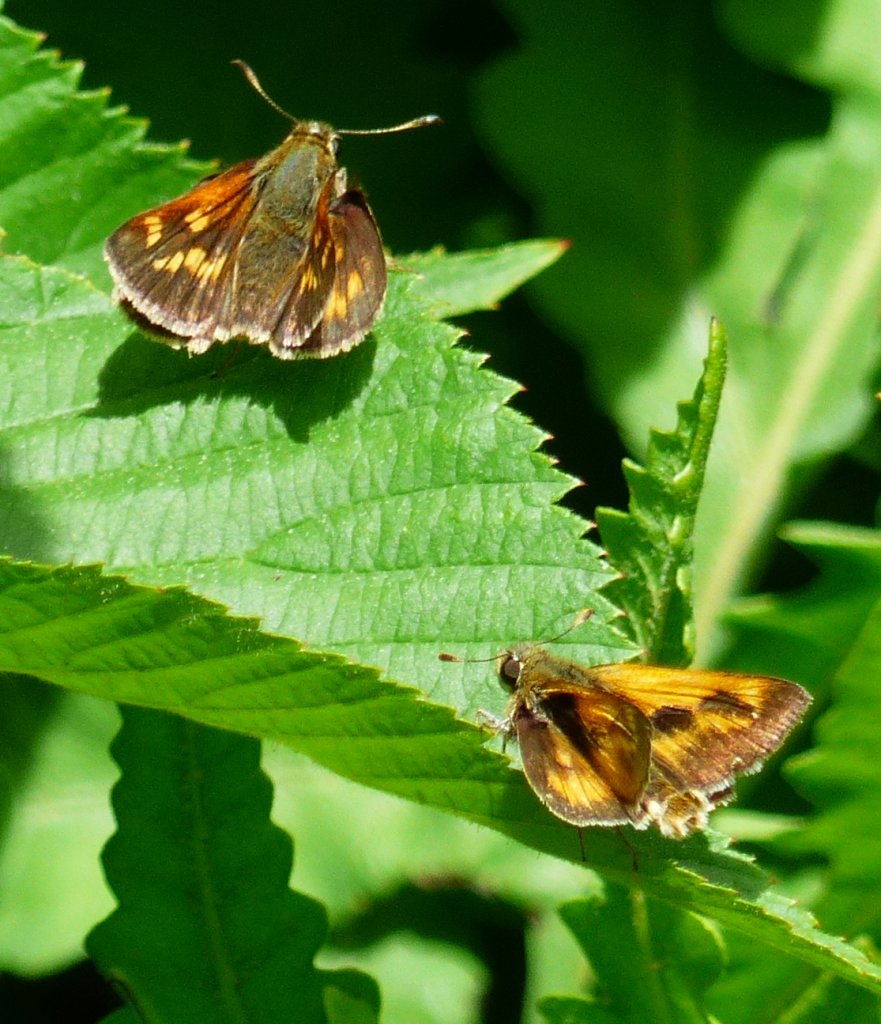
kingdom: Animalia
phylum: Arthropoda
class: Insecta
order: Lepidoptera
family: Hesperiidae
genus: Polites
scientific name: Polites
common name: Long Dash Skipper
